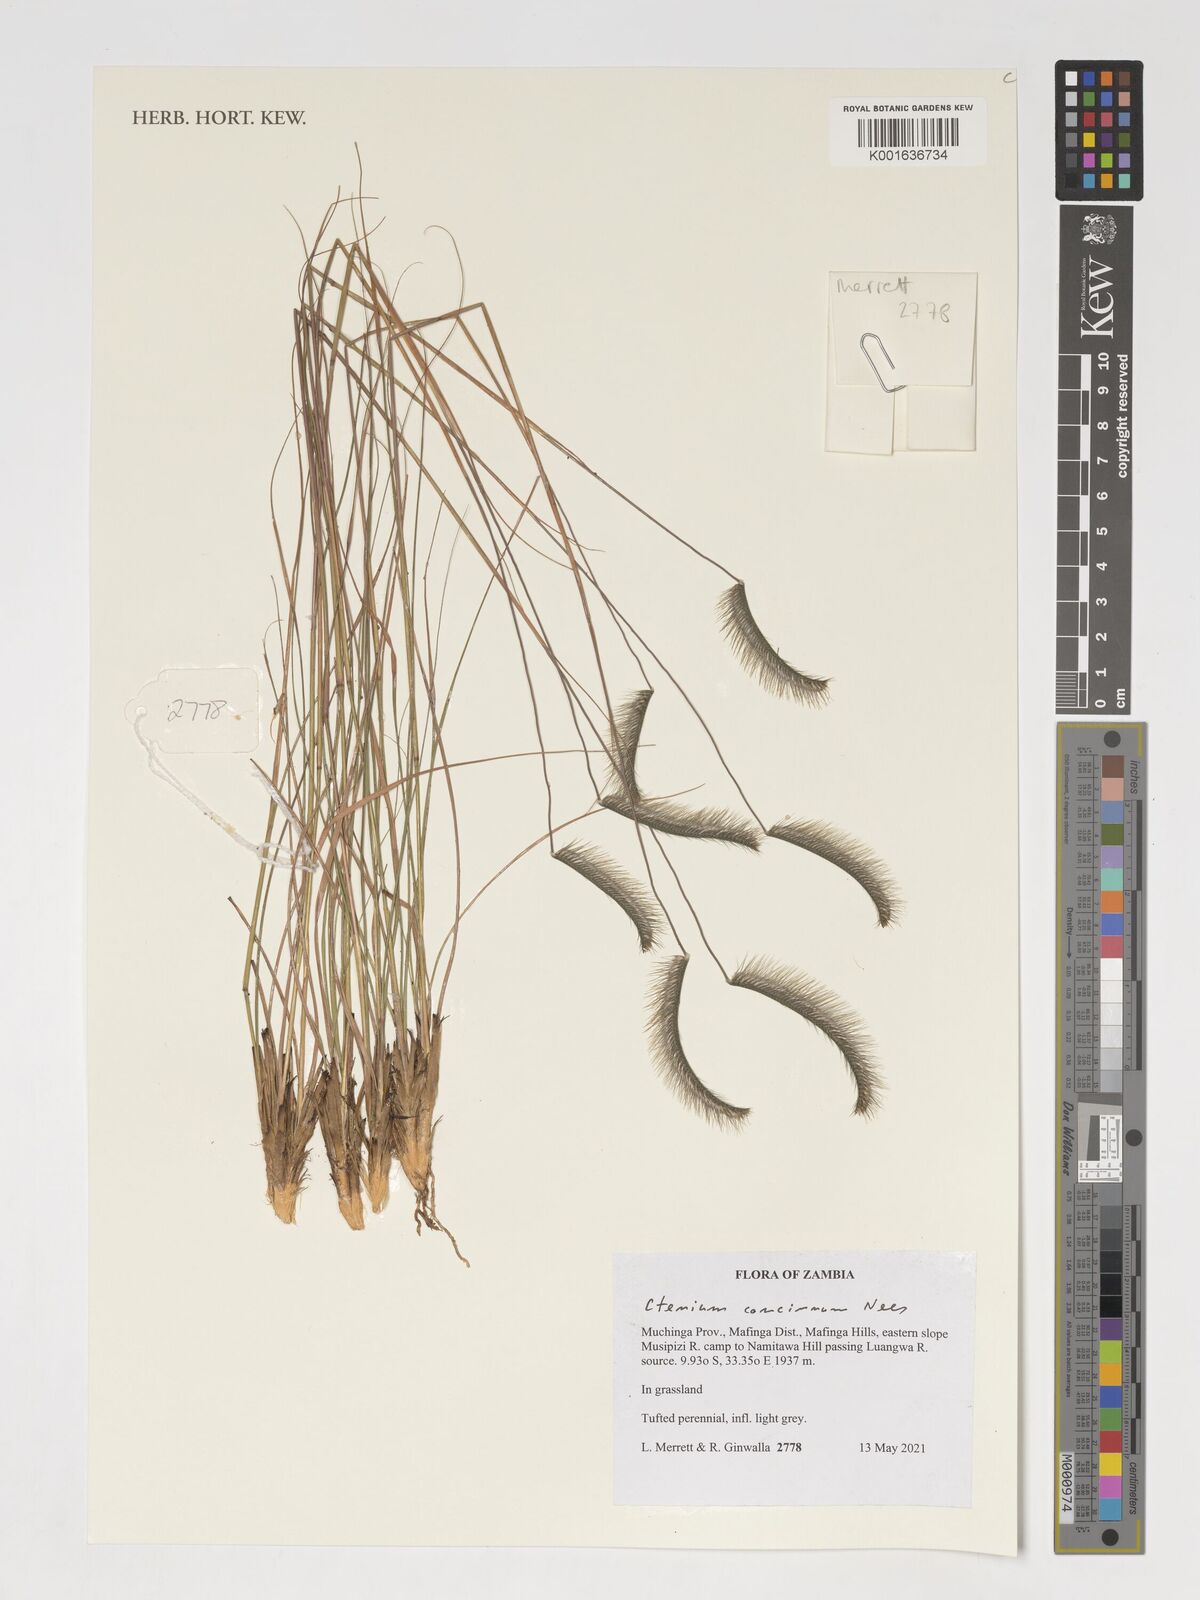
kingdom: Plantae
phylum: Tracheophyta
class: Liliopsida
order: Poales
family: Poaceae
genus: Ctenium
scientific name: Ctenium concinnum
